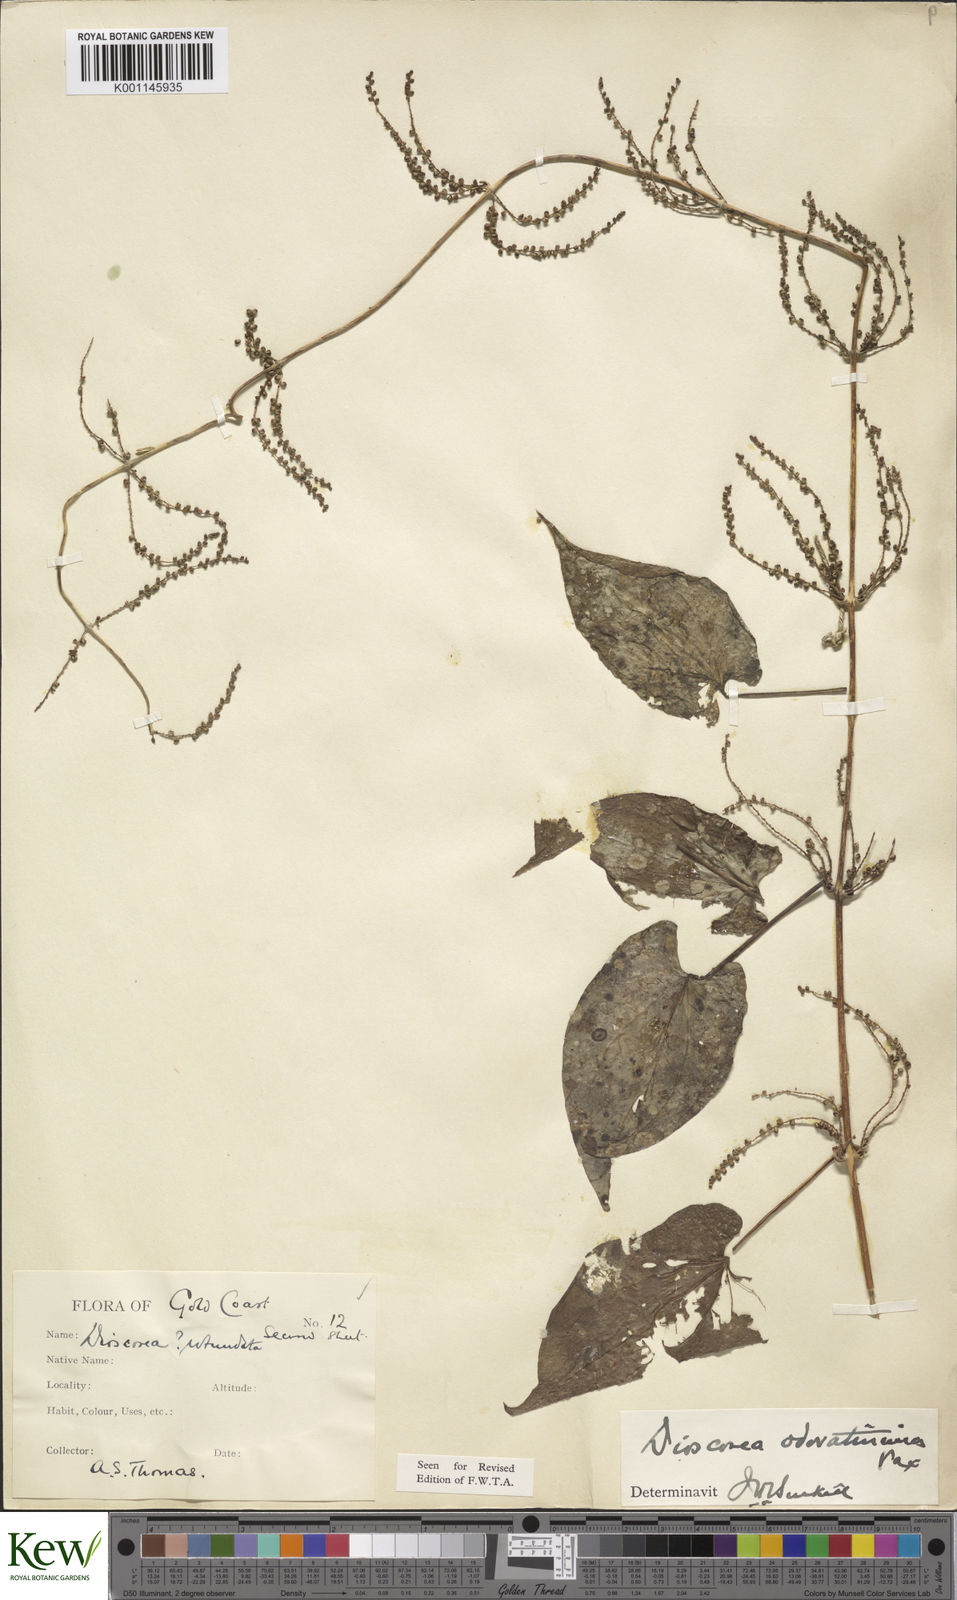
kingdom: Plantae
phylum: Tracheophyta
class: Liliopsida
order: Dioscoreales
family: Dioscoreaceae
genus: Dioscorea
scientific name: Dioscorea praehensilis
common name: Bush yam
